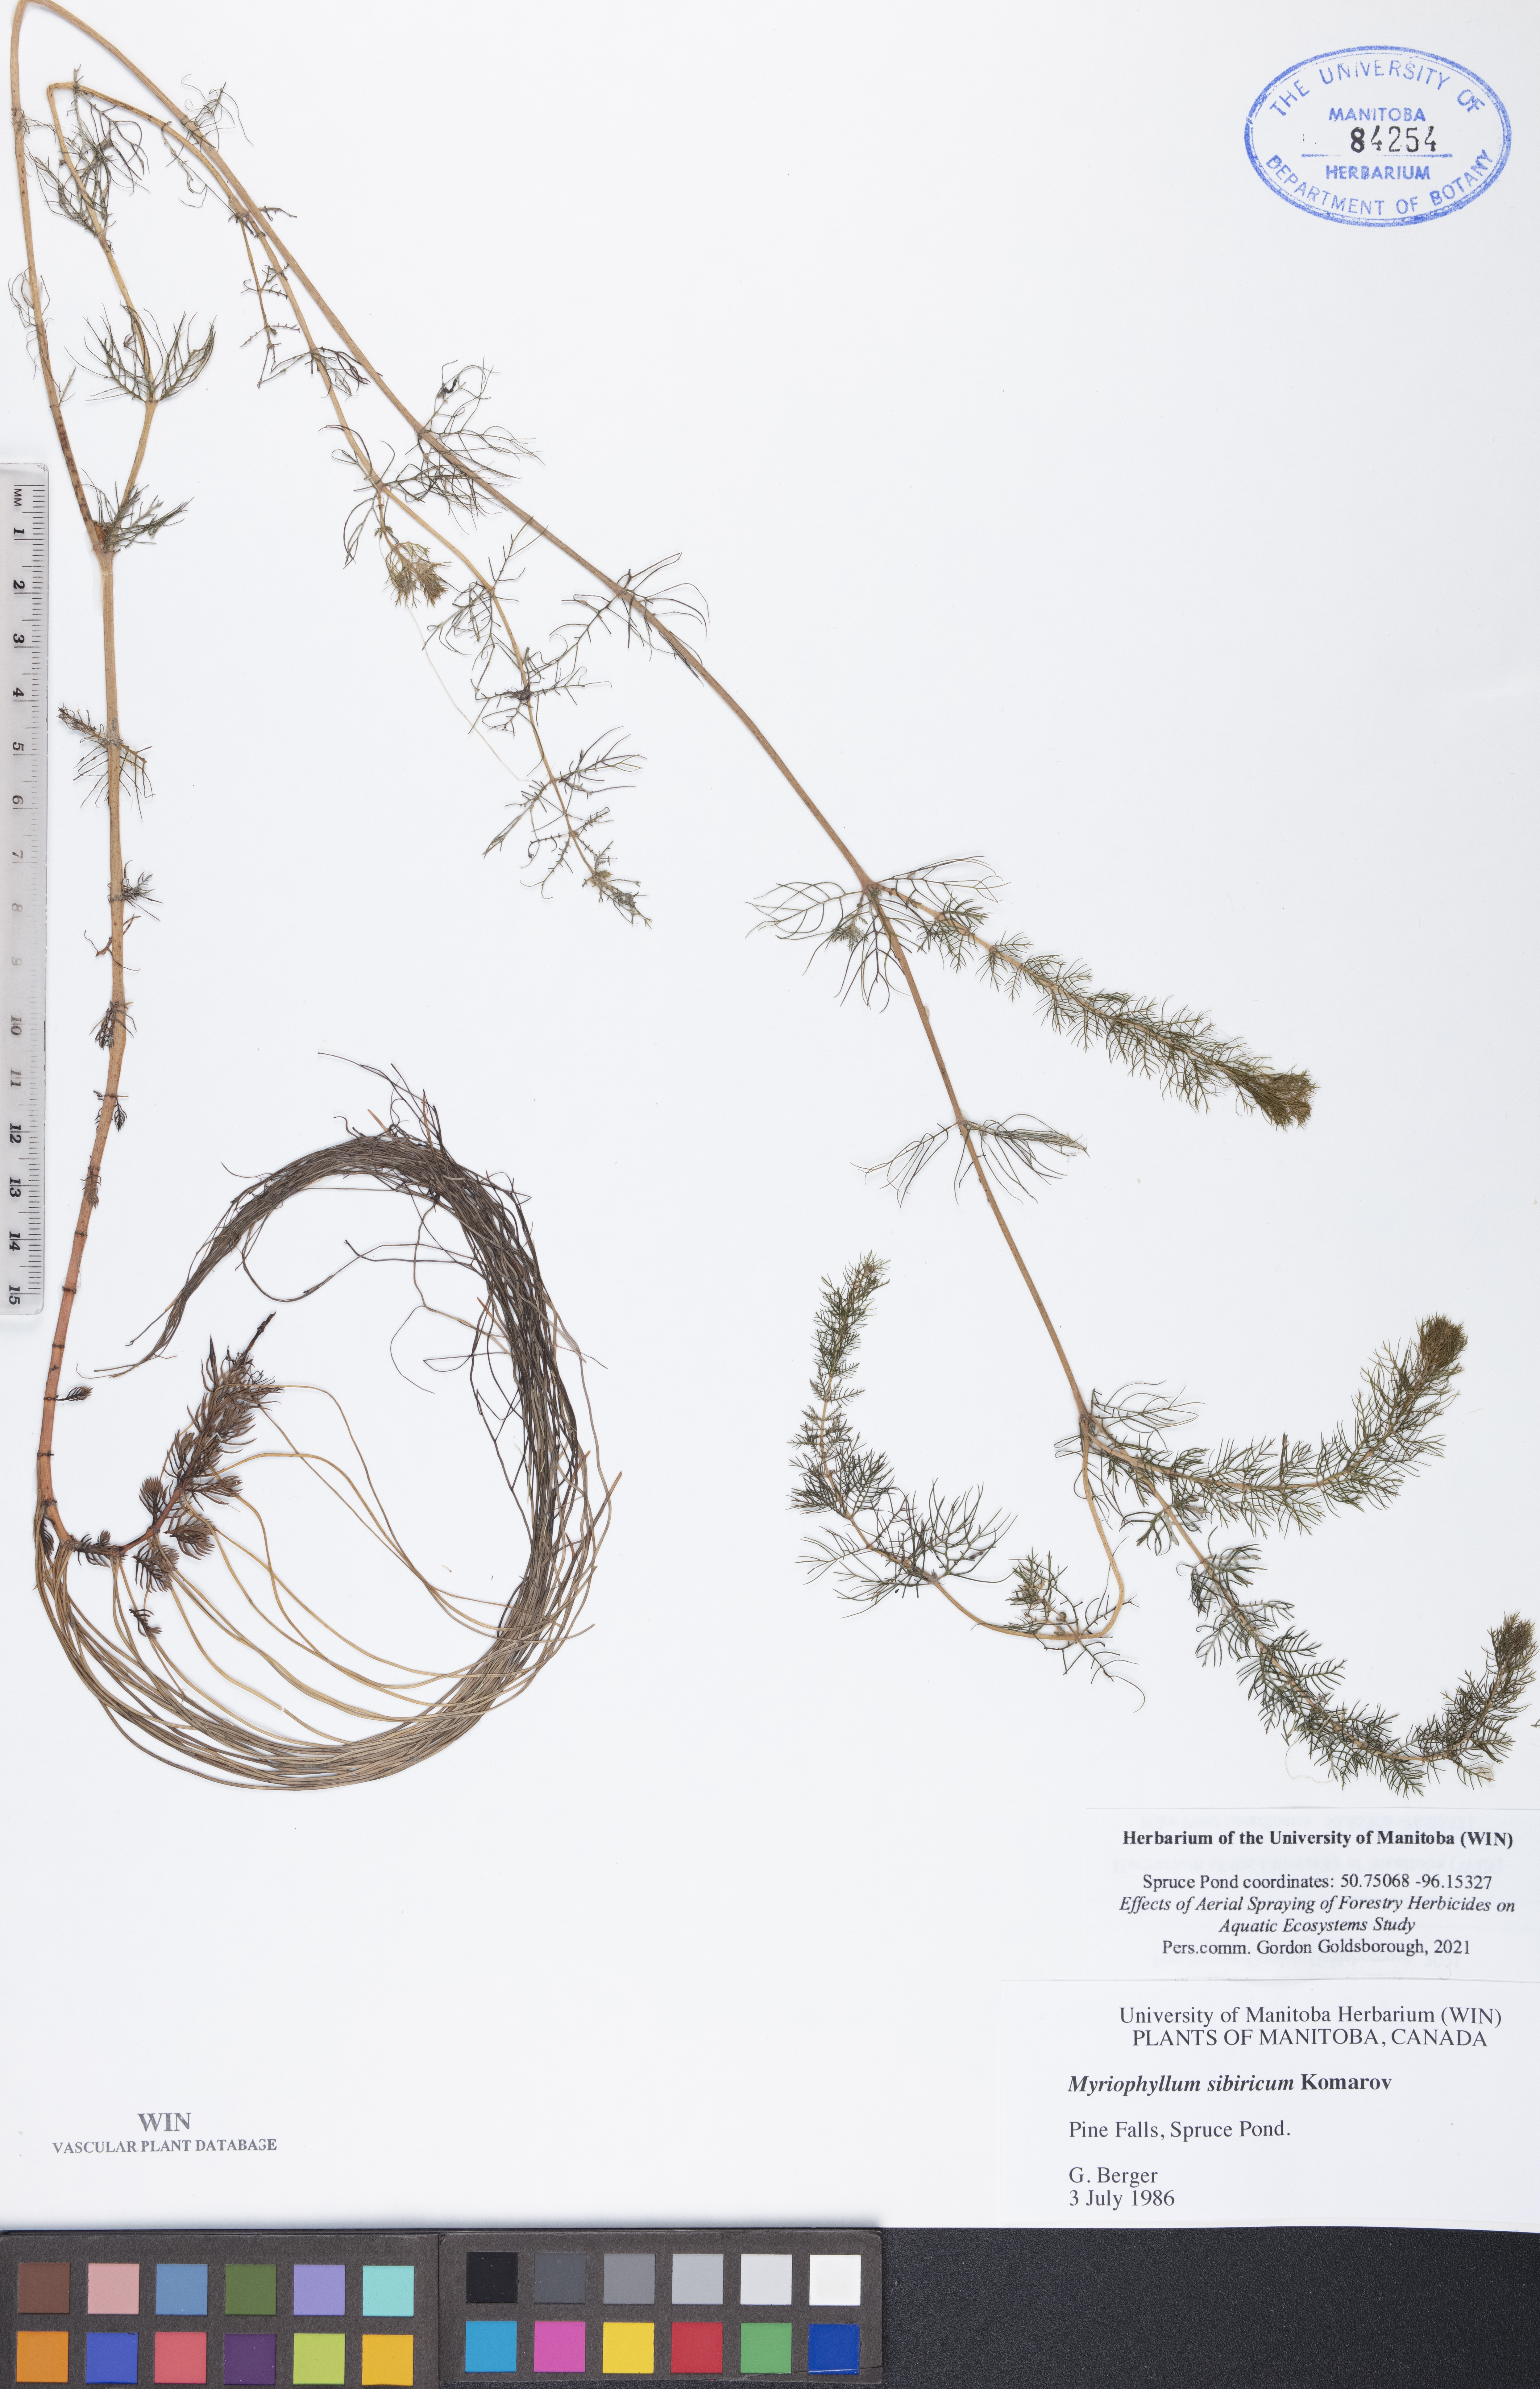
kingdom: Plantae
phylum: Tracheophyta
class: Magnoliopsida
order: Saxifragales
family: Haloragaceae
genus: Myriophyllum
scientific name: Myriophyllum sibiricum
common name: Siberian water-milfoil
